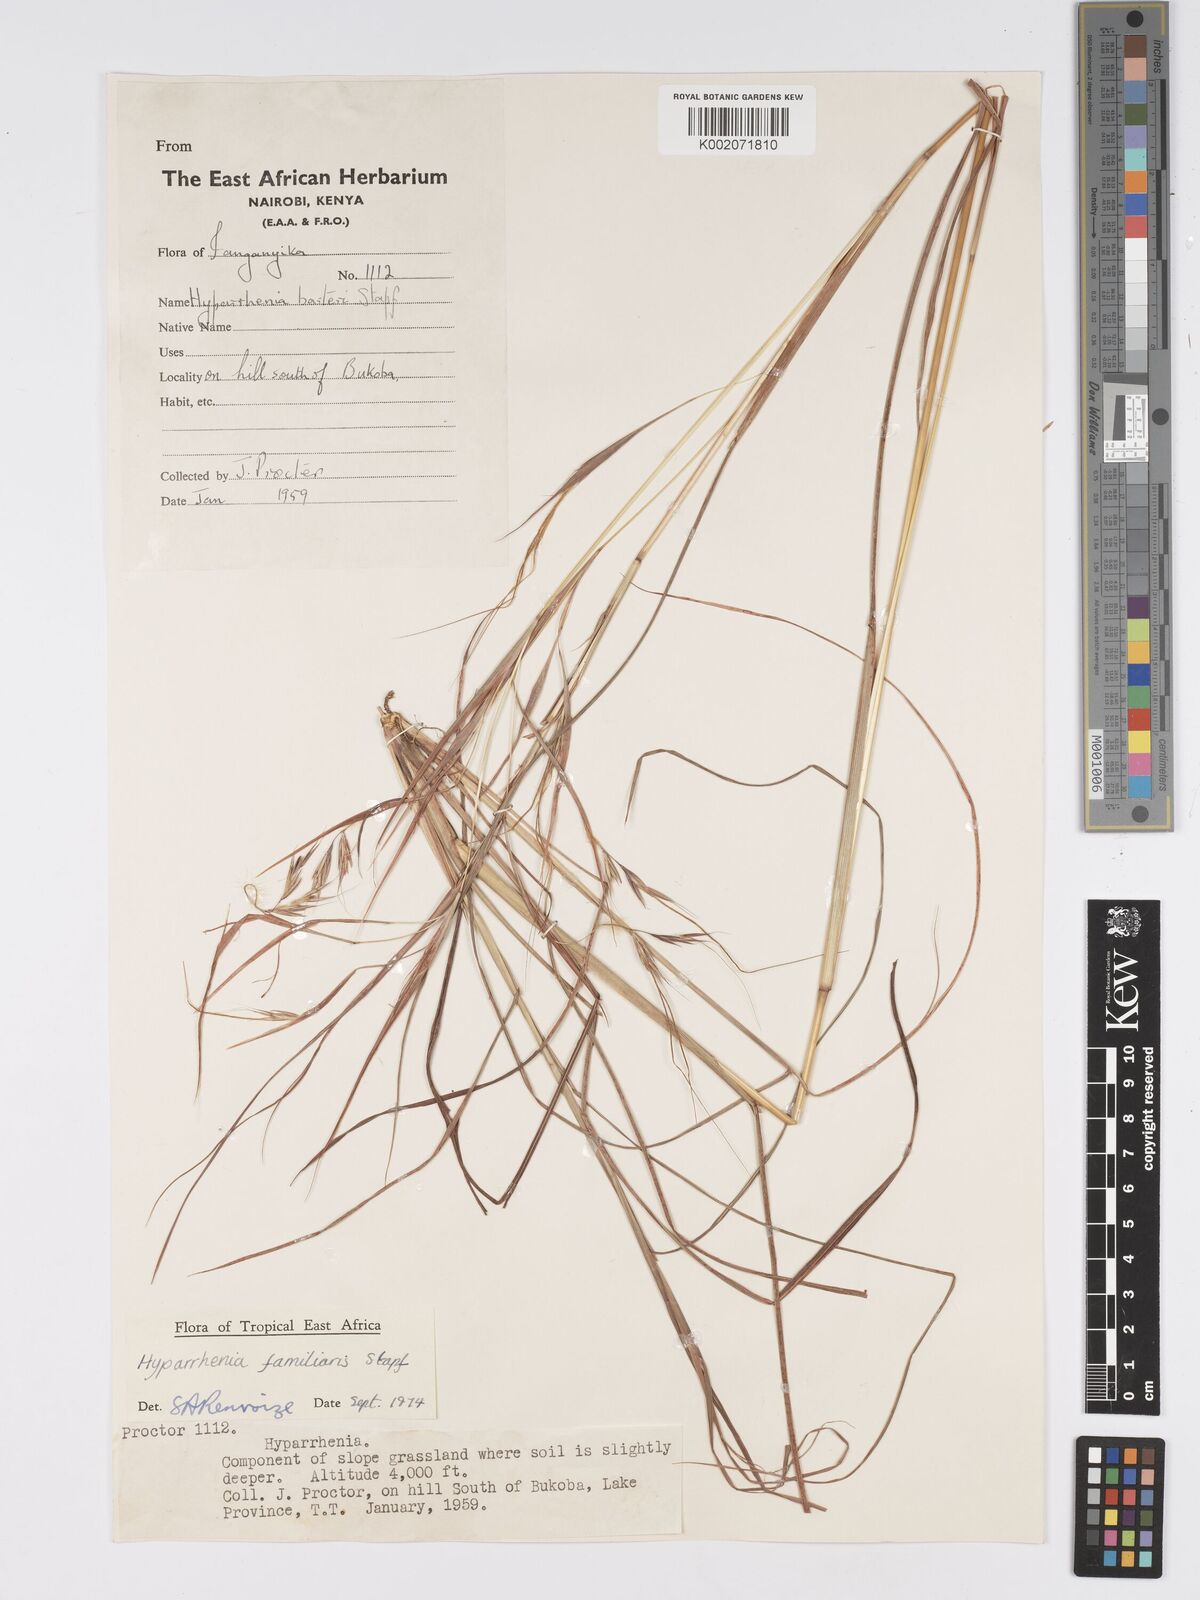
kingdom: Plantae
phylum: Tracheophyta
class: Liliopsida
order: Poales
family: Poaceae
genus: Hyparrhenia
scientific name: Hyparrhenia familiaris
